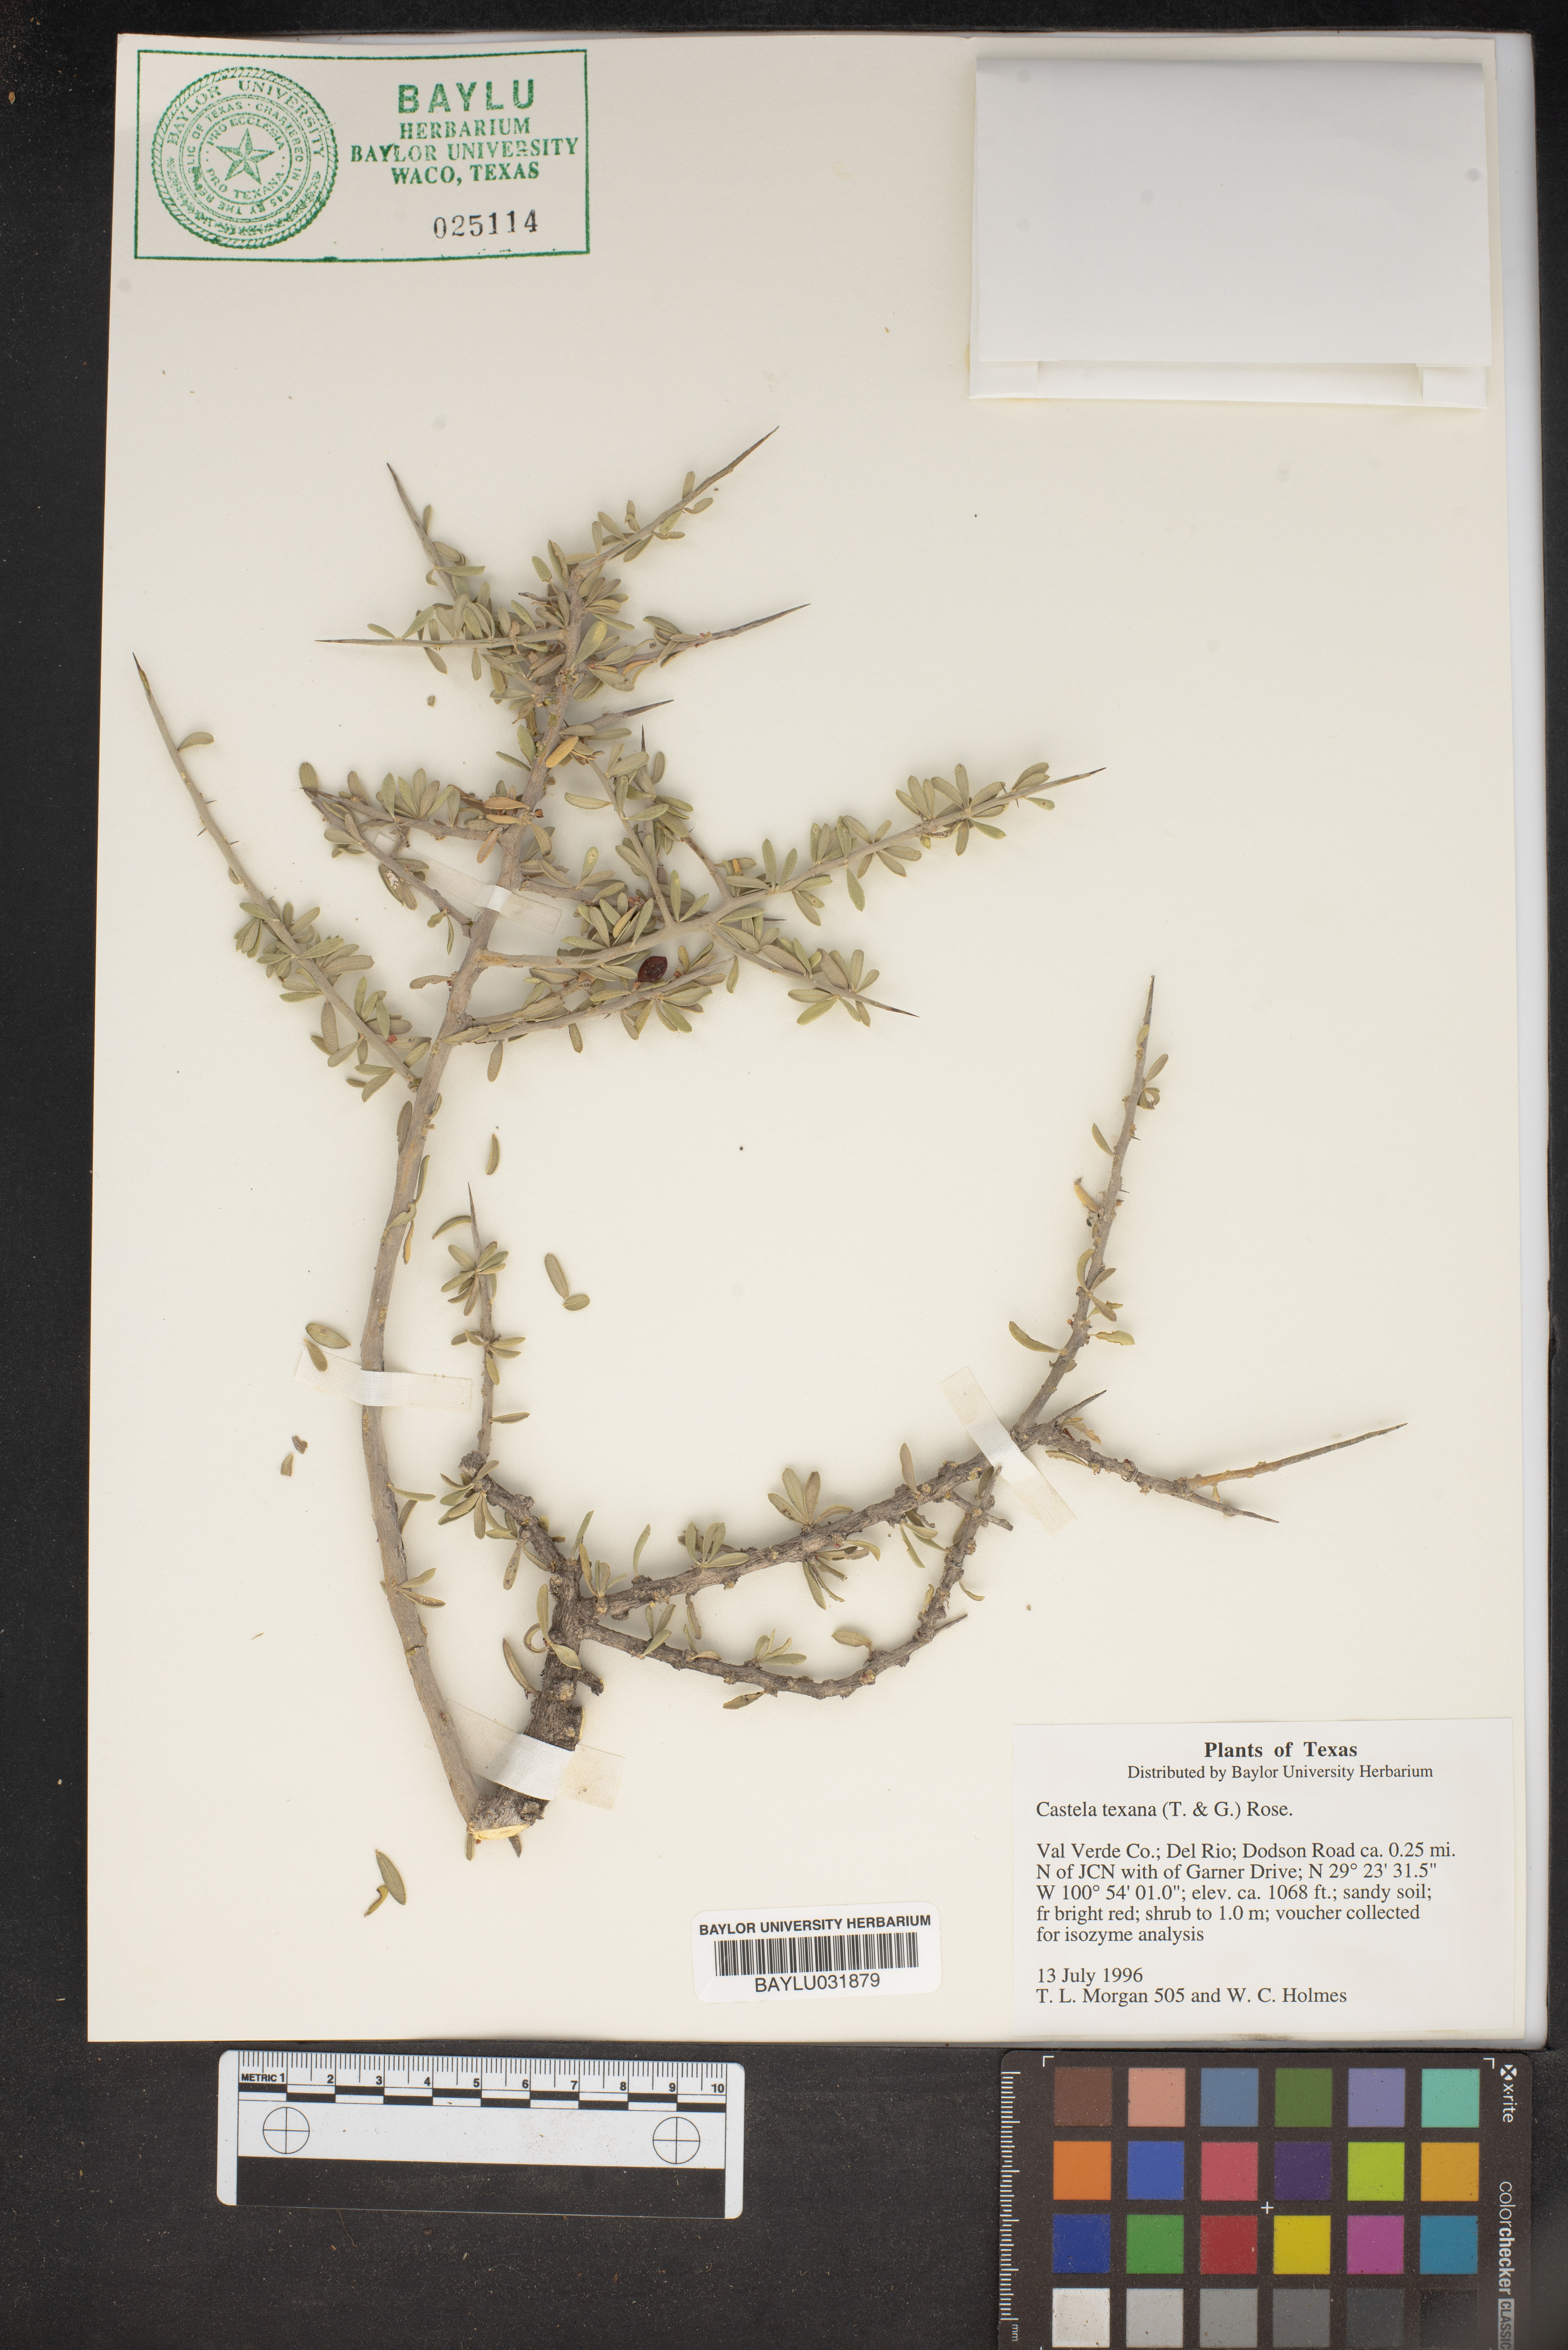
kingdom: Plantae
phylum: Tracheophyta
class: Magnoliopsida
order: Sapindales
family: Simaroubaceae
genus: Castela
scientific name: Castela tortuosa
